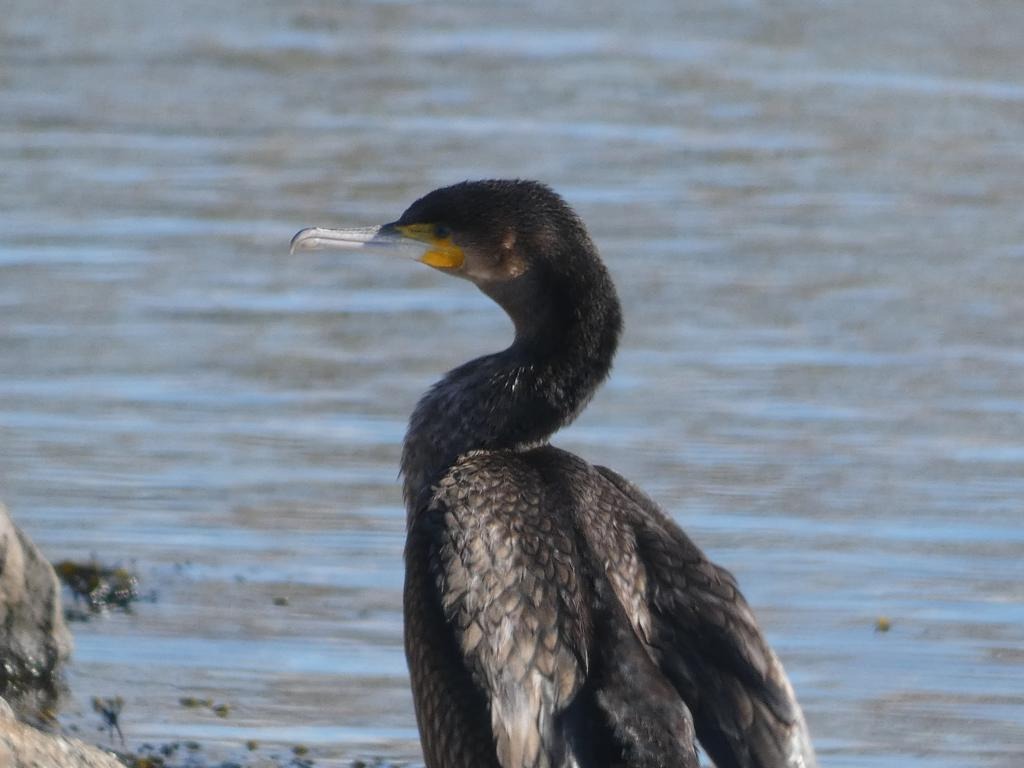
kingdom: Animalia
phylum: Chordata
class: Aves
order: Suliformes
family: Phalacrocoracidae
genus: Phalacrocorax
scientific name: Phalacrocorax carbo
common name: Skarv
